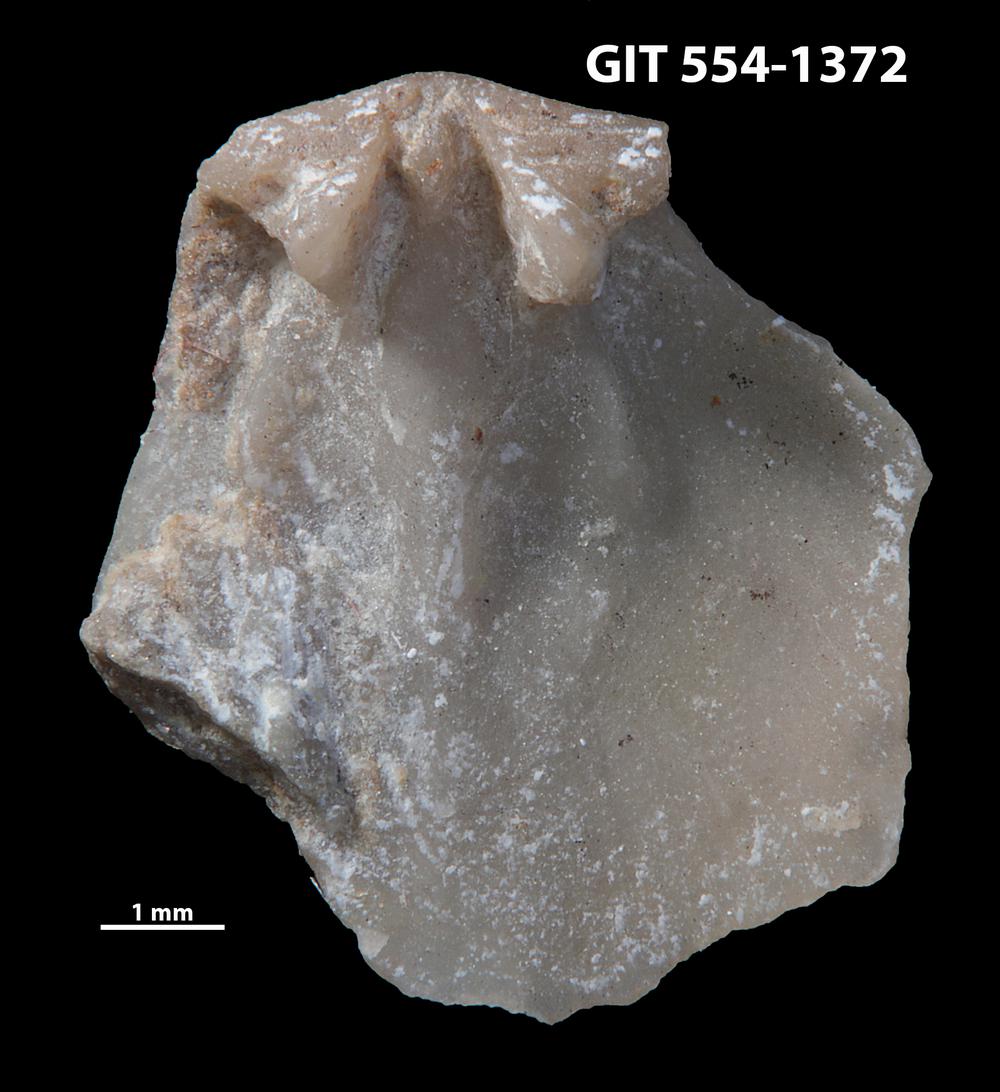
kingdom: Animalia
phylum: Brachiopoda
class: Rhynchonellata
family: Dalmanellidae
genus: Dalmanella
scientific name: Dalmanella cyclica
